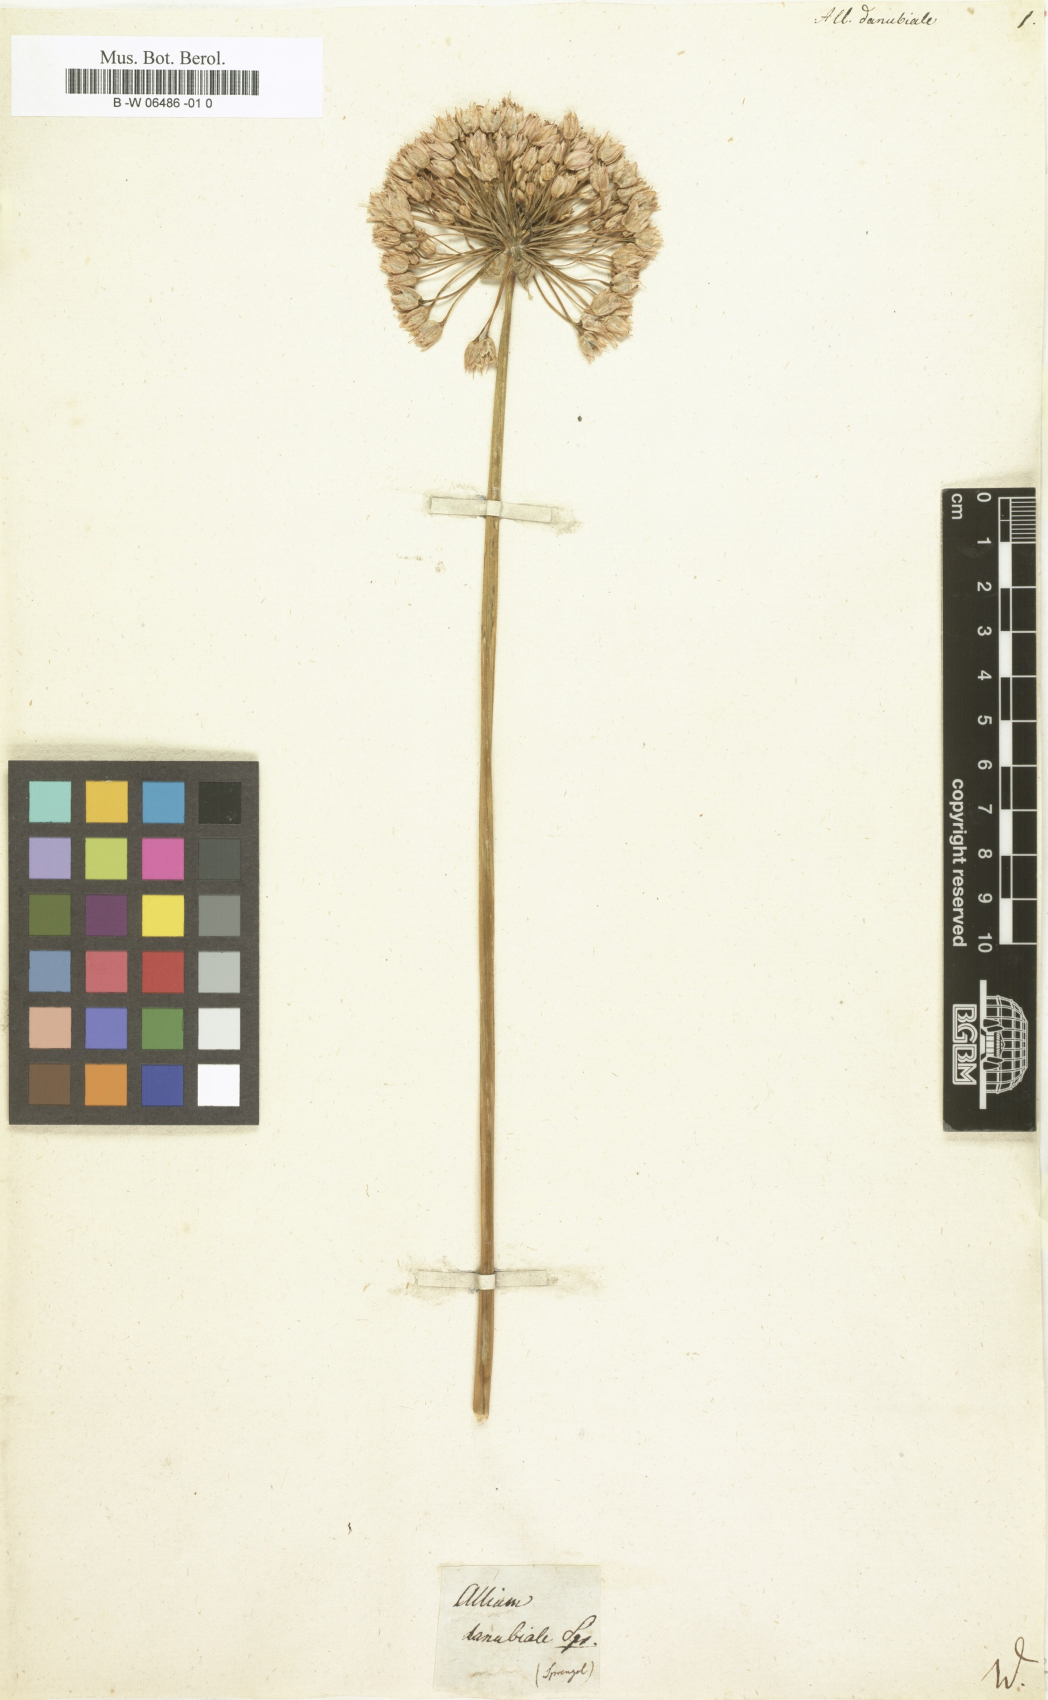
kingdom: Plantae
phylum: Tracheophyta
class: Liliopsida
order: Asparagales
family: Amaryllidaceae
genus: Allium
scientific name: Allium
